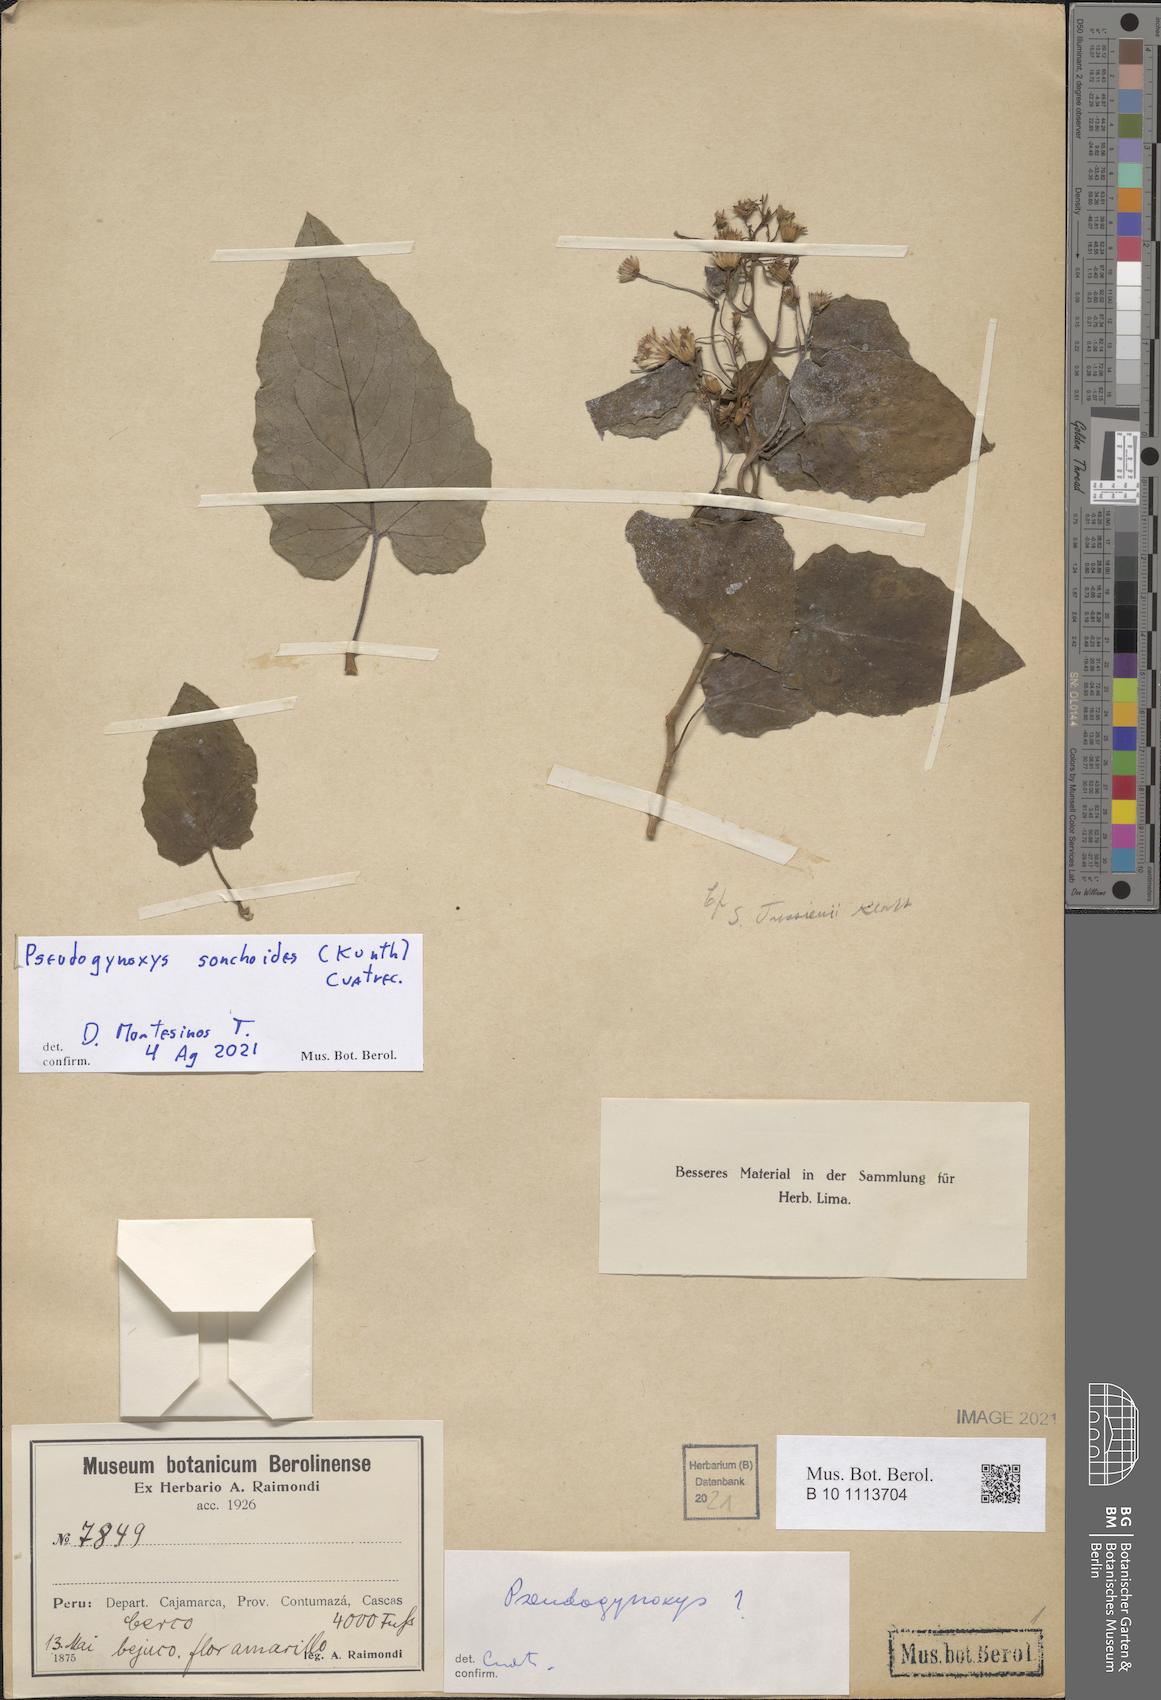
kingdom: Plantae
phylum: Tracheophyta
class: Magnoliopsida
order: Asterales
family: Asteraceae
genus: Pseudogynoxys
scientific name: Pseudogynoxys sonchoides
